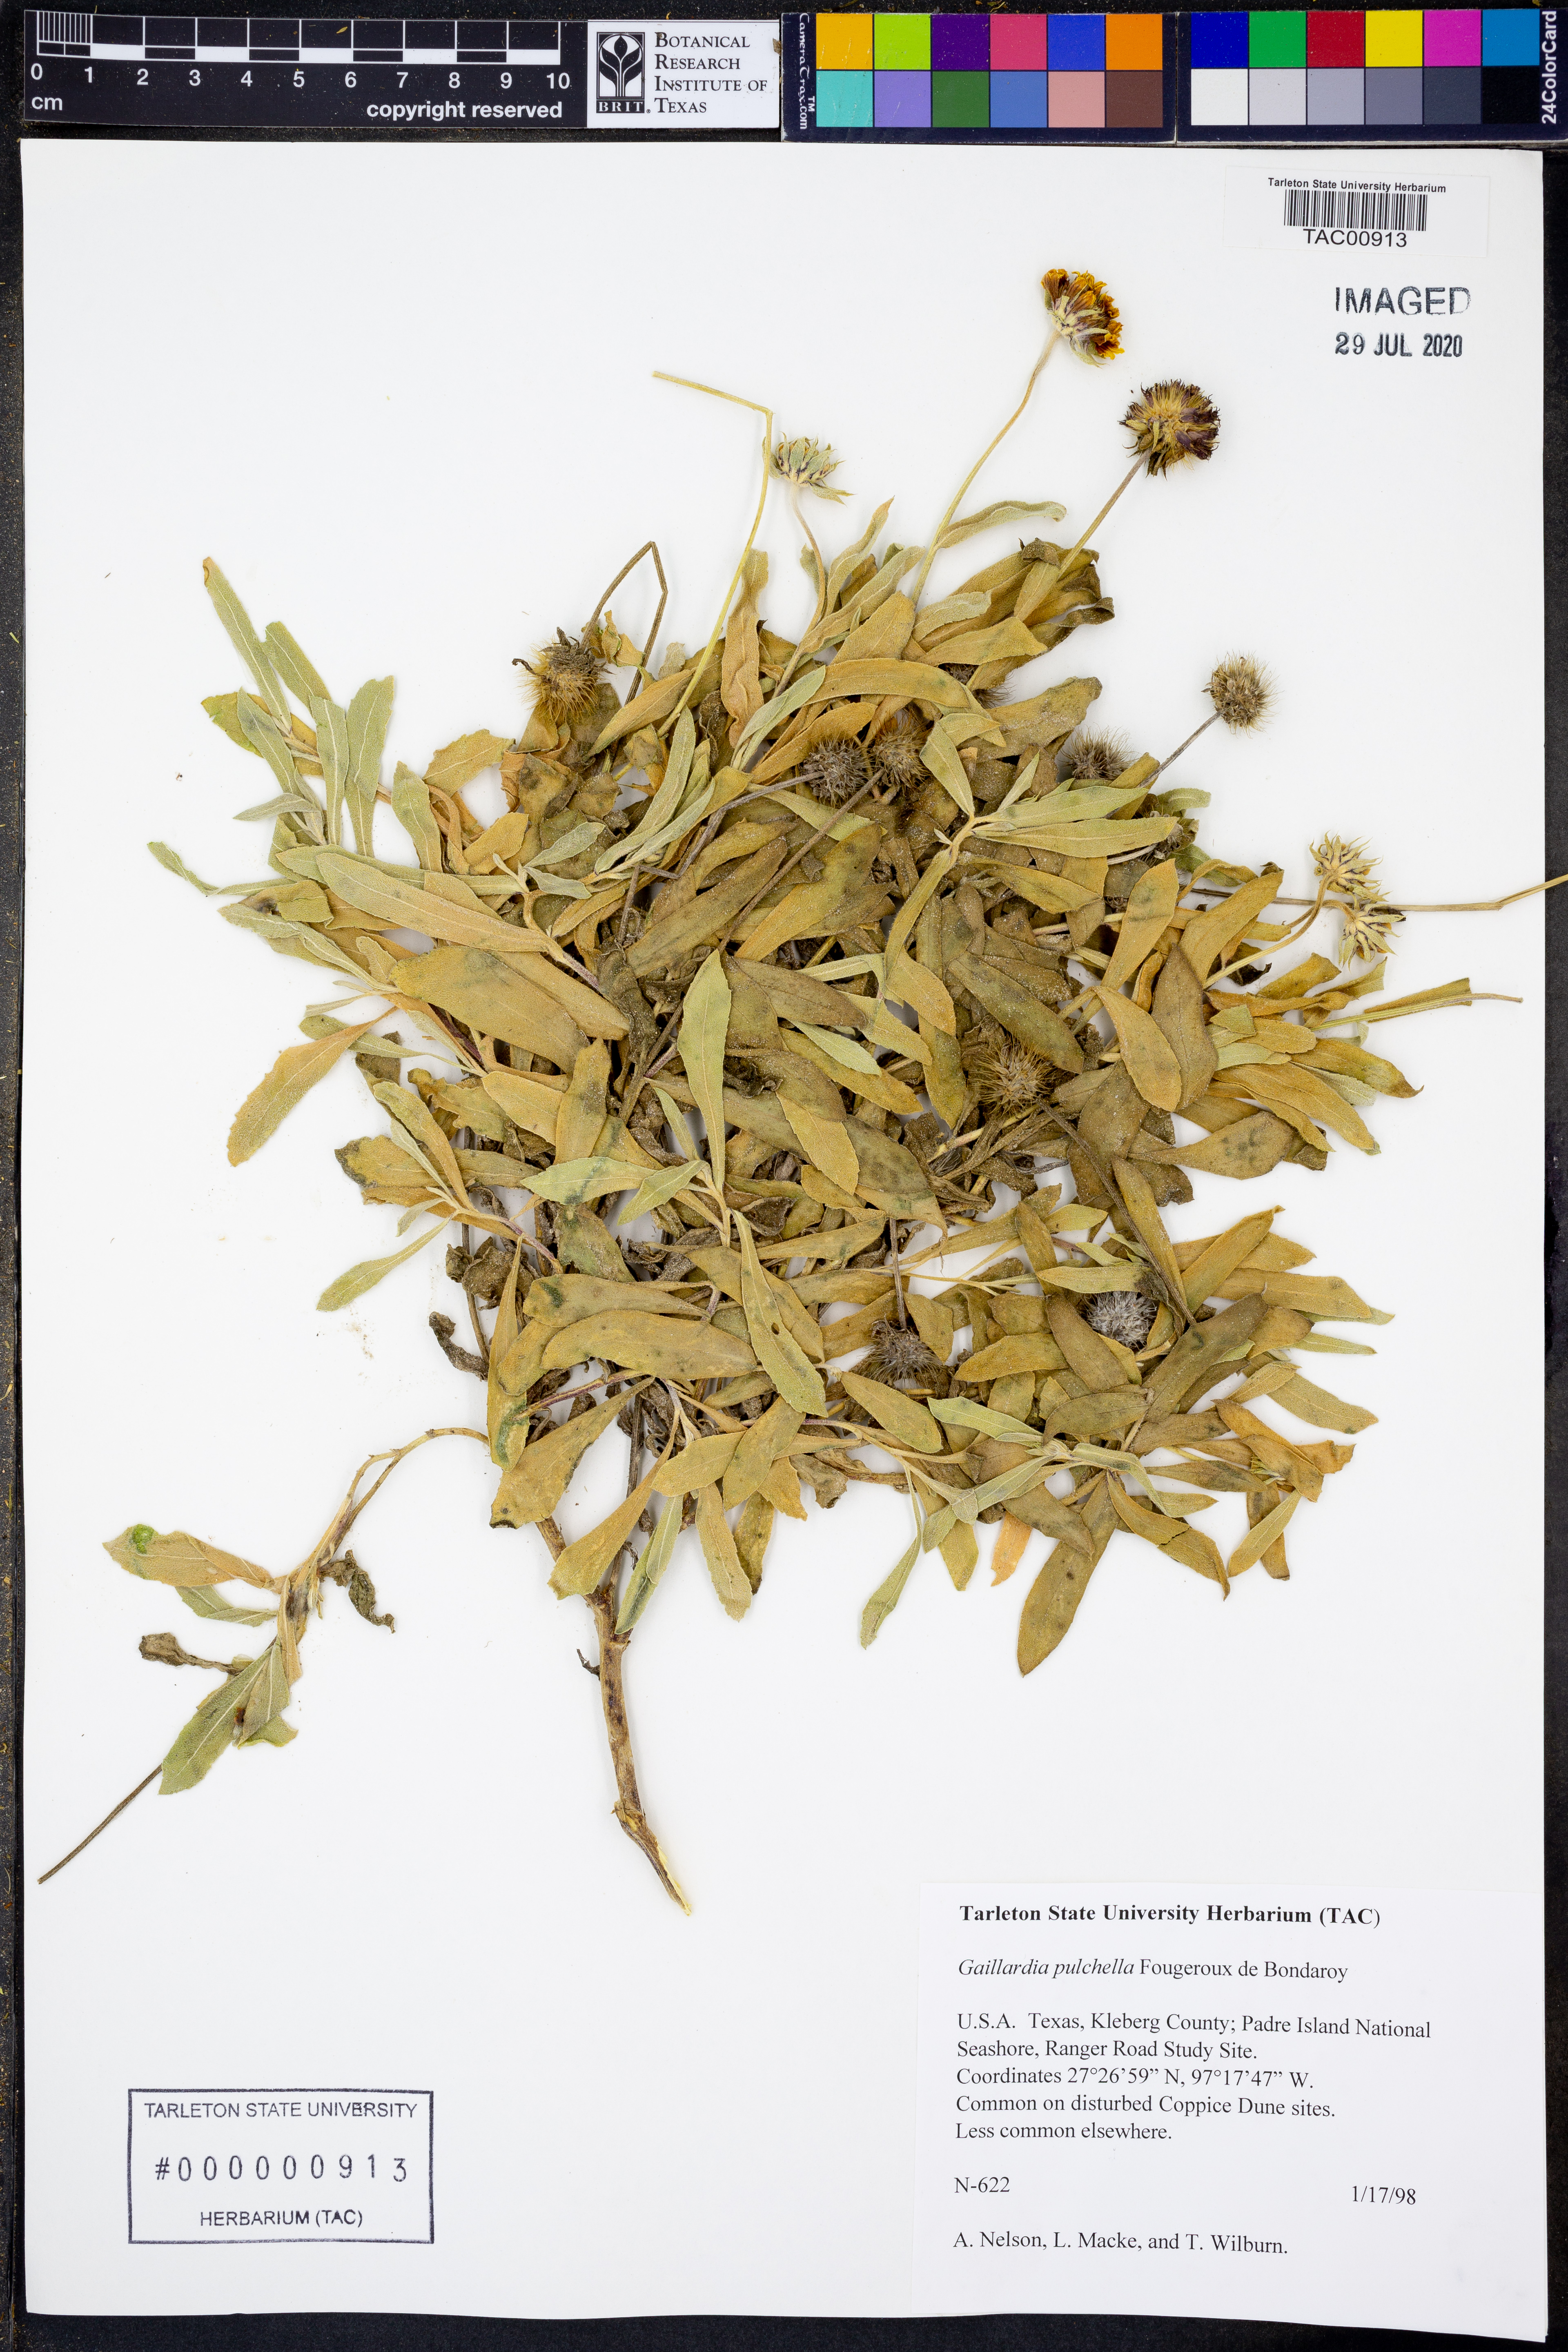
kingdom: Plantae
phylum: Tracheophyta
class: Magnoliopsida
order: Asterales
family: Asteraceae
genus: Gaillardia
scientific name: Gaillardia pulchella
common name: Firewheel
